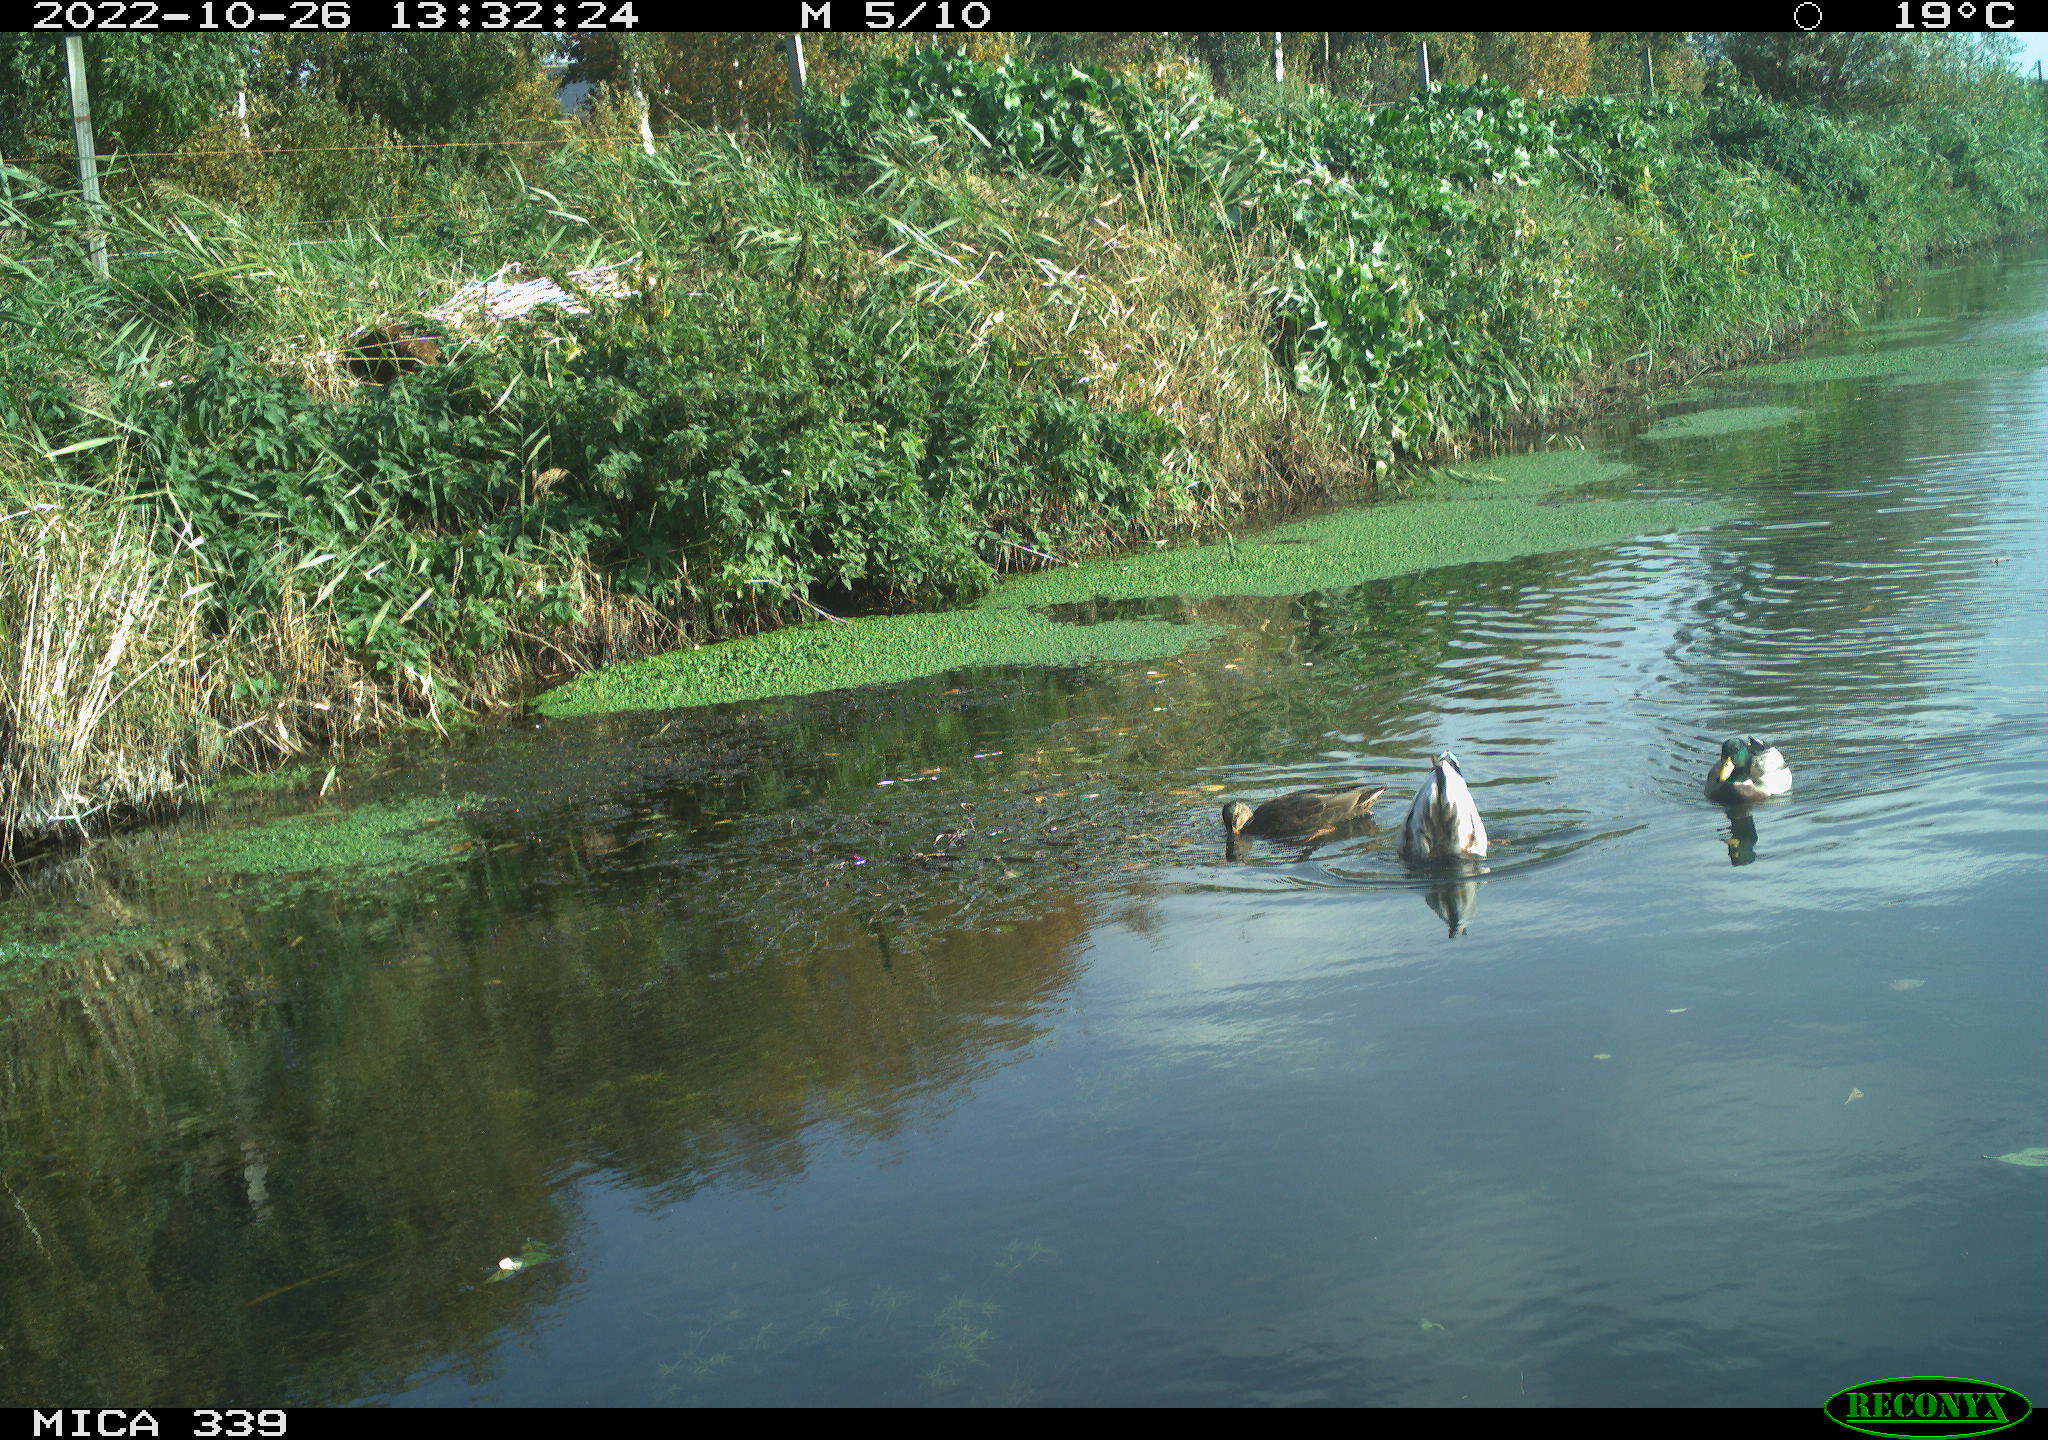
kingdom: Animalia
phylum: Chordata
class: Aves
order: Anseriformes
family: Anatidae
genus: Anas
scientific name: Anas platyrhynchos
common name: Mallard
